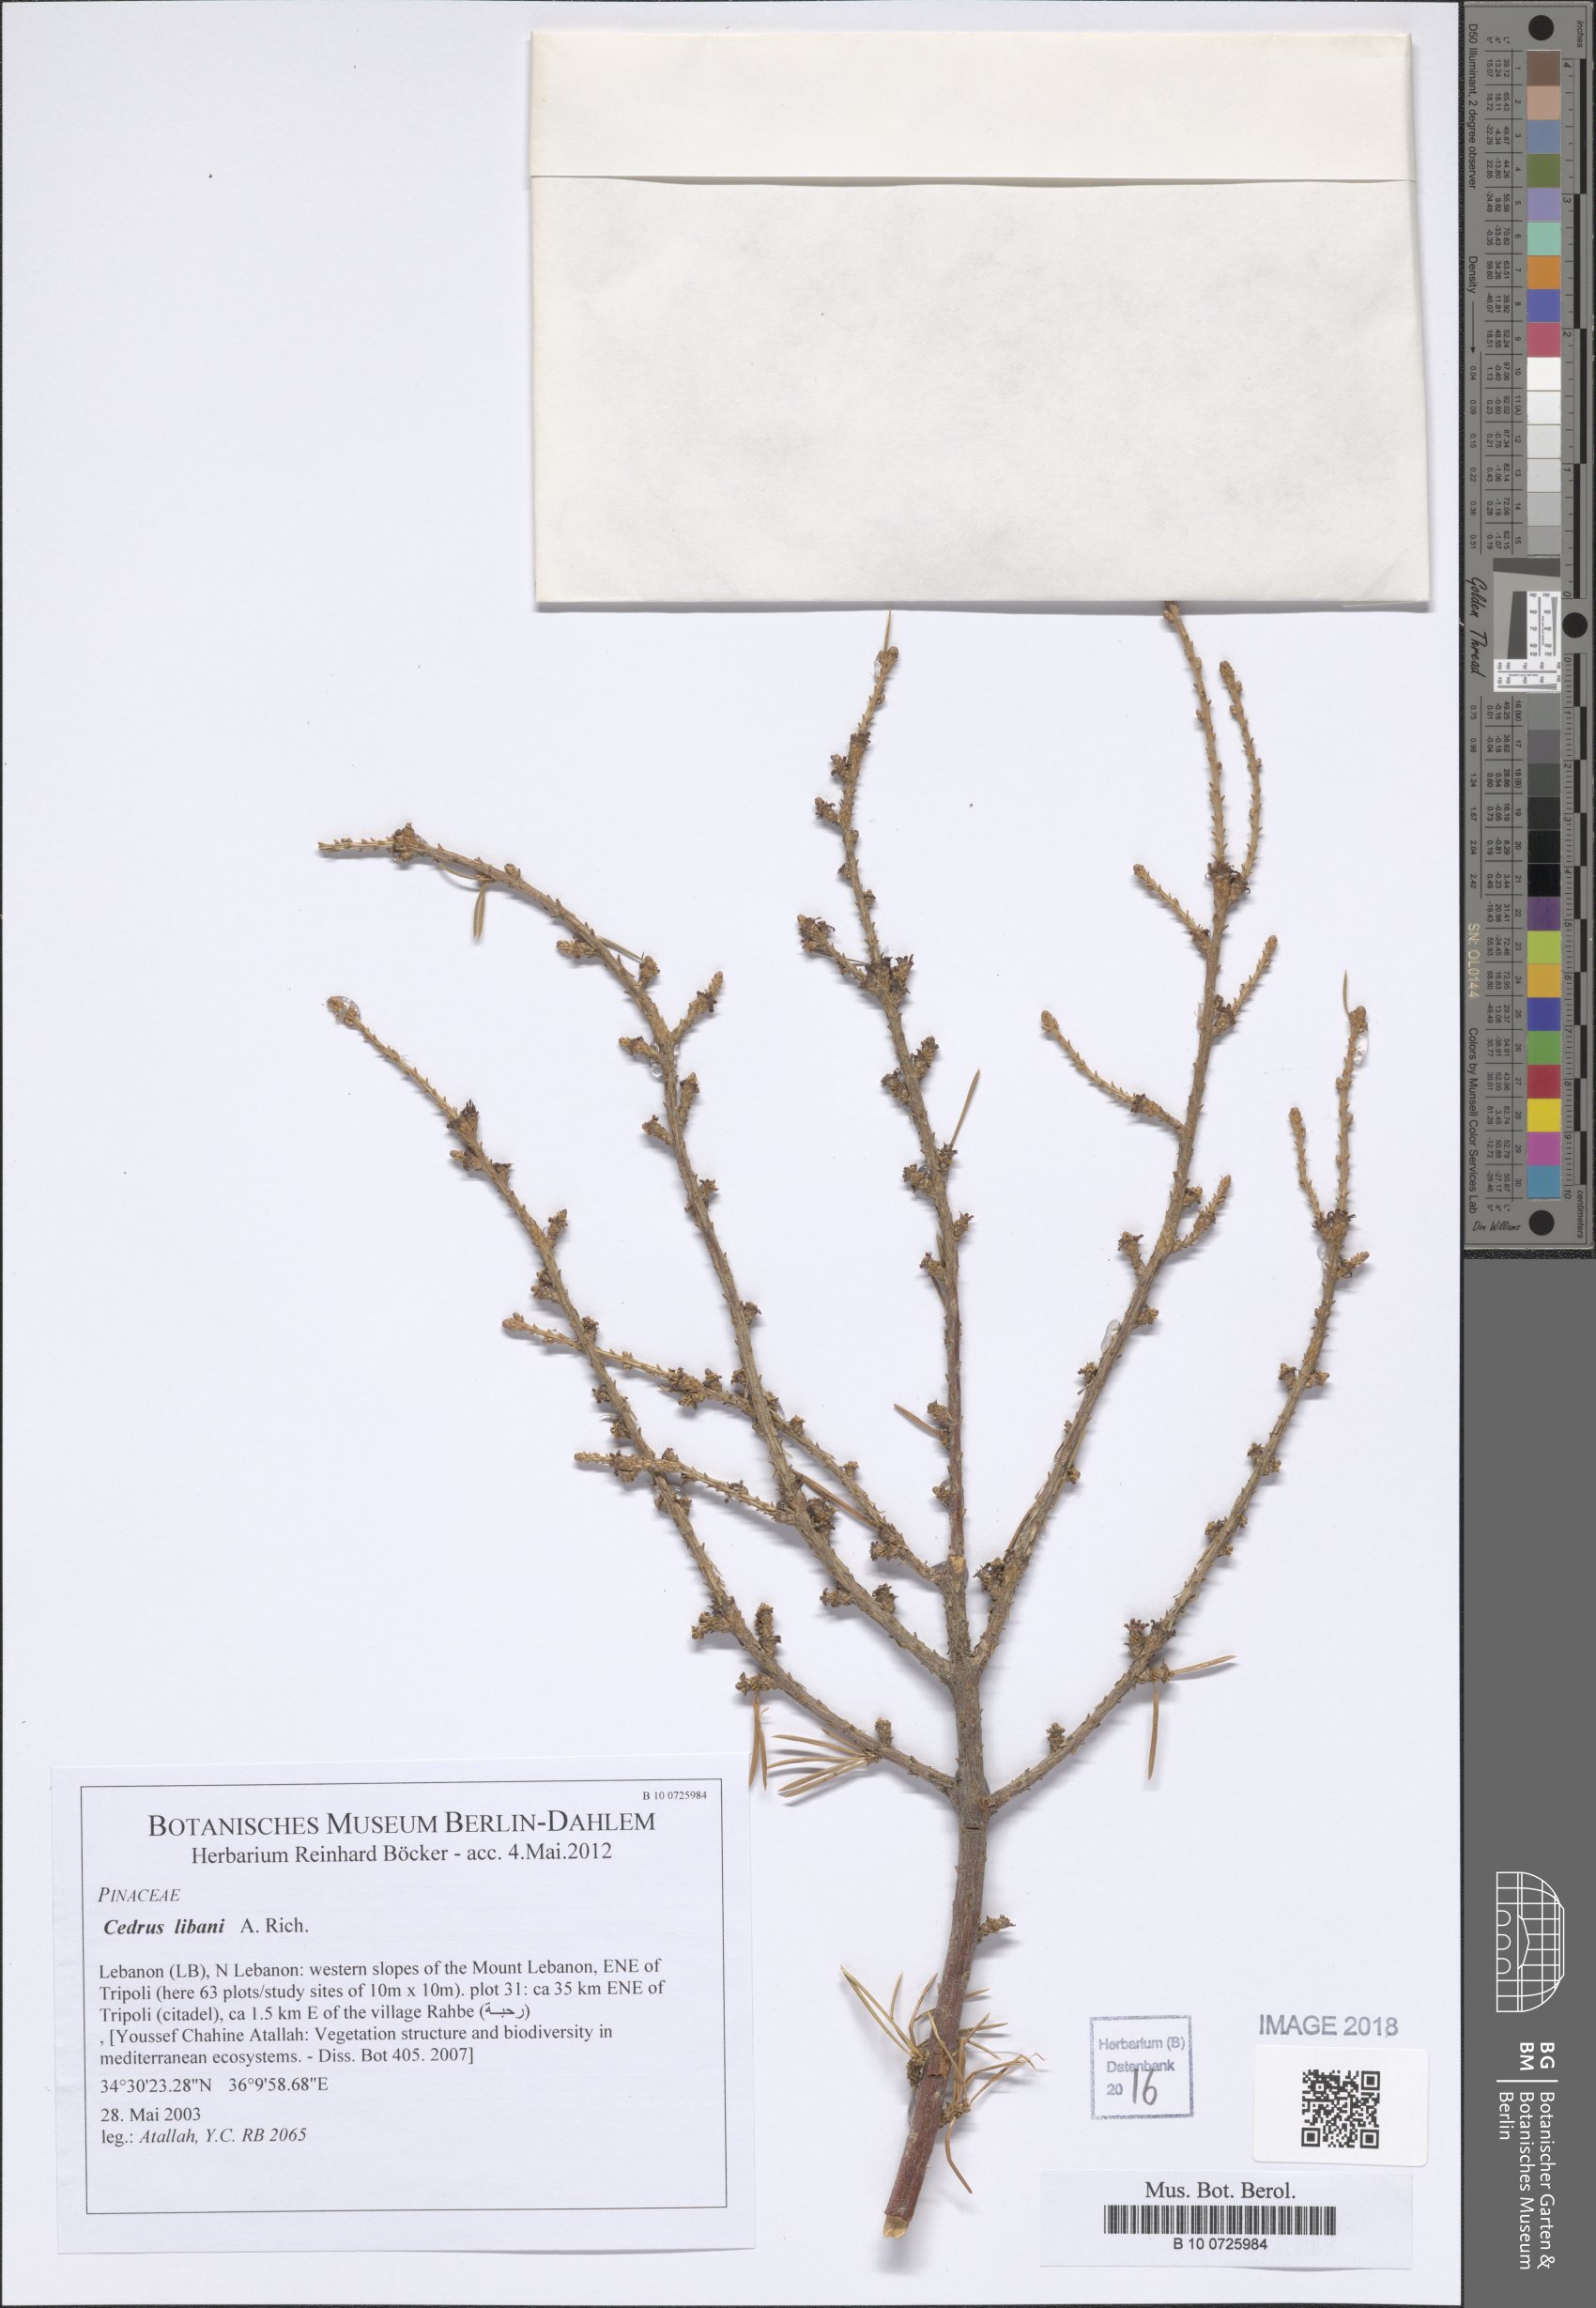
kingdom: Plantae
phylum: Tracheophyta
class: Pinopsida
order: Pinales
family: Pinaceae
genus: Cedrus
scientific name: Cedrus libani
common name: Cedar-of-lebanon
